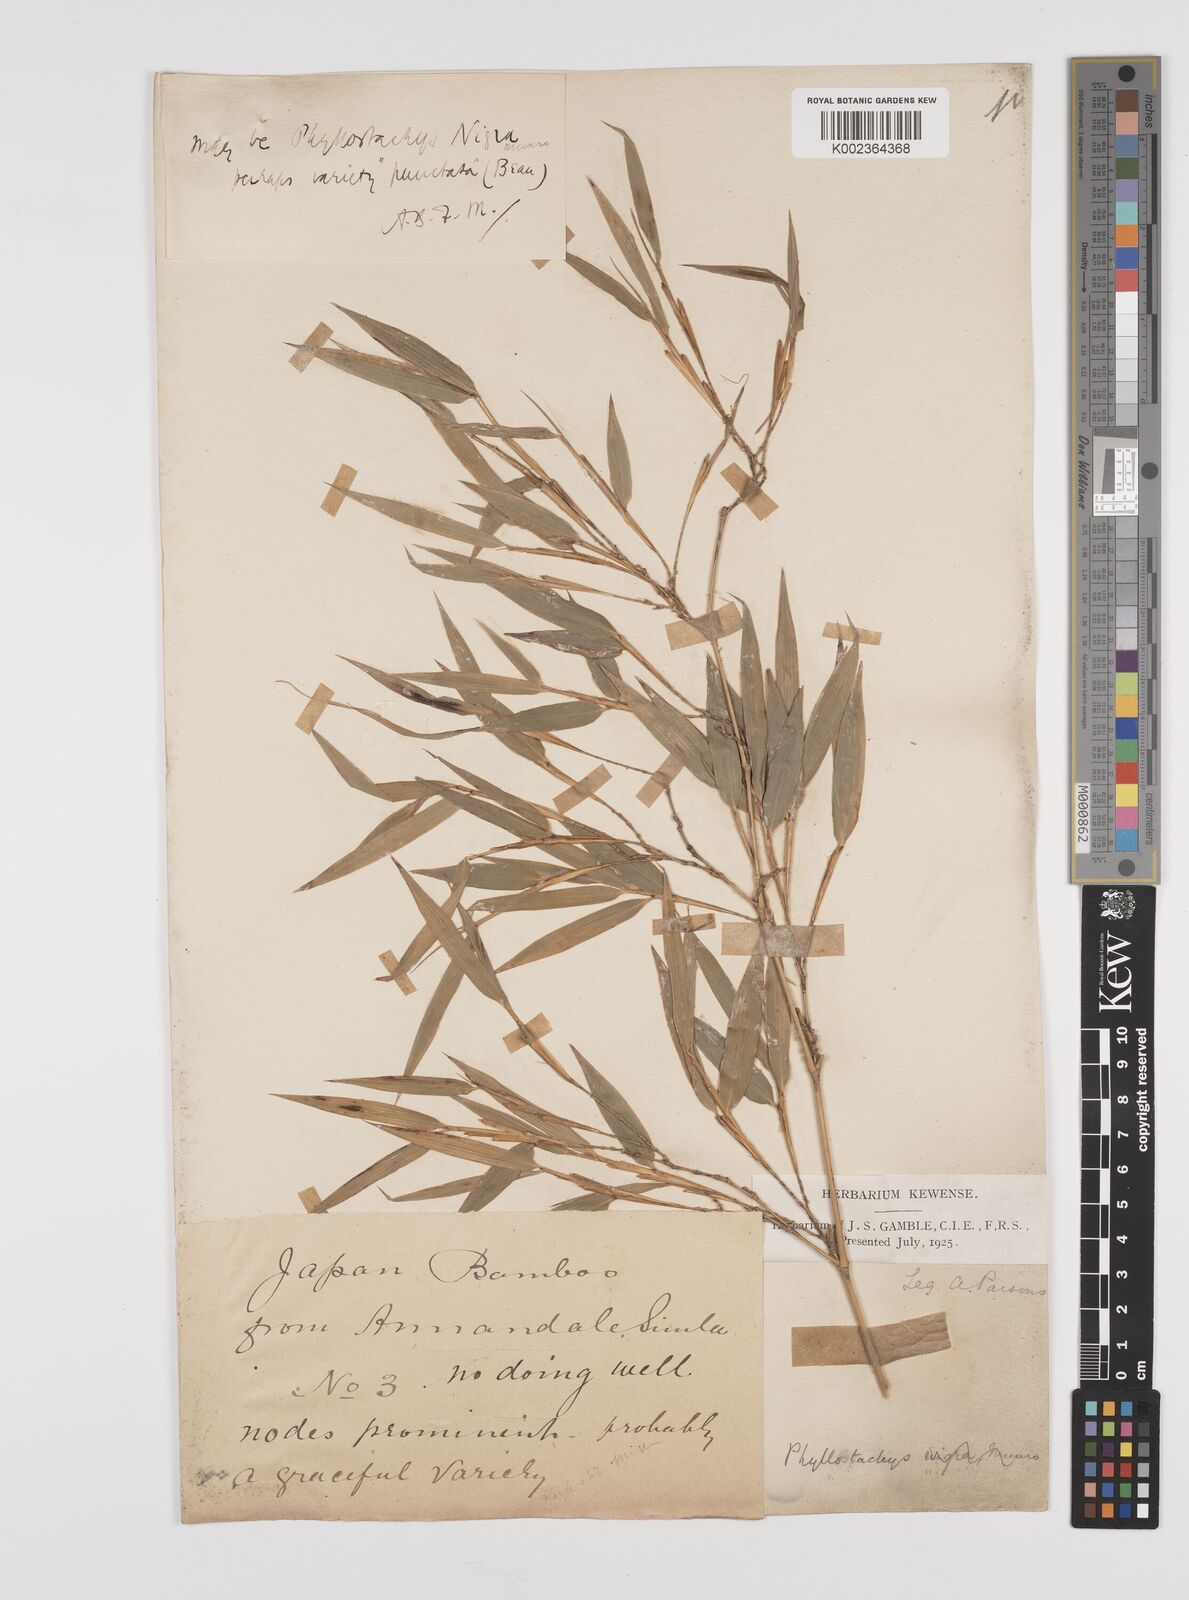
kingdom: Plantae
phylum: Tracheophyta
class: Liliopsida
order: Poales
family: Poaceae
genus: Phyllostachys
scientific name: Phyllostachys nigra
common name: Black bamboo
